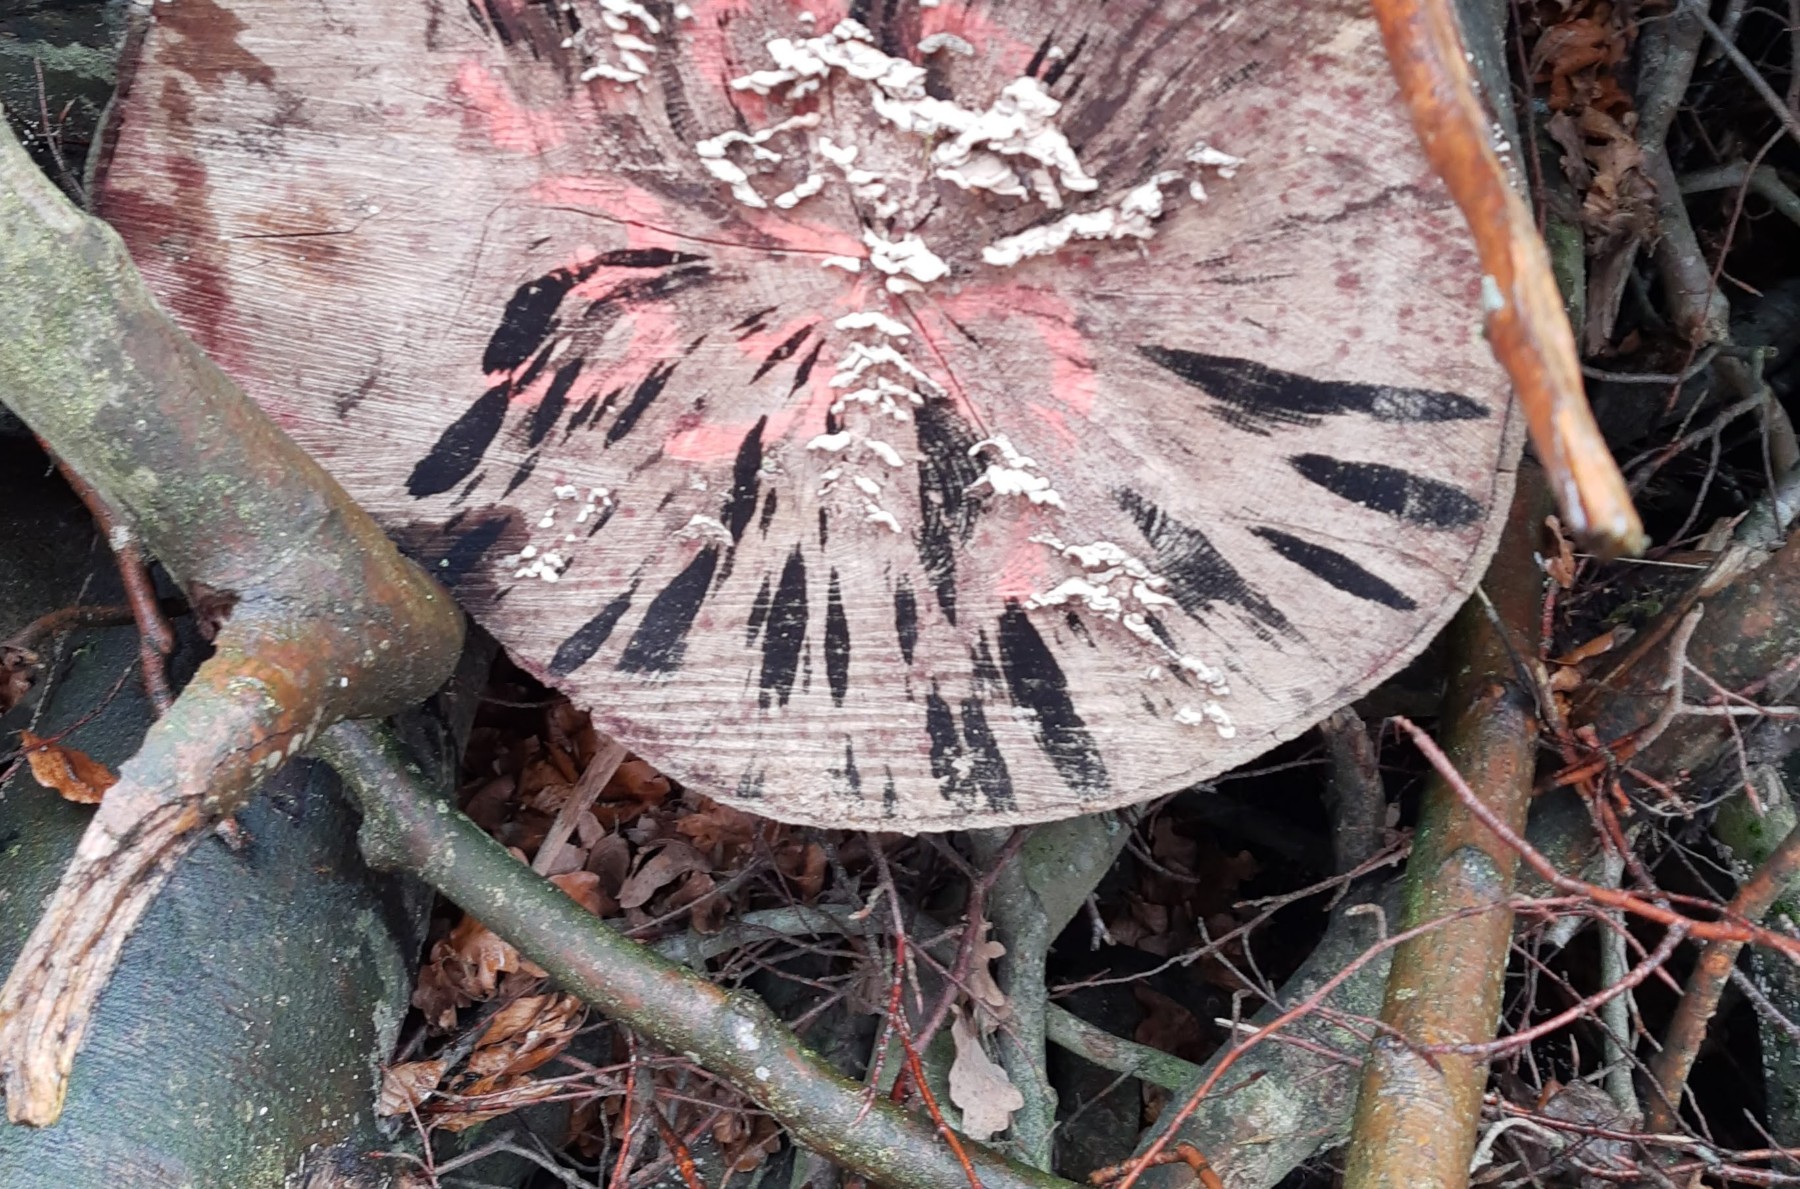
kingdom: Fungi
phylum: Ascomycota
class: Leotiomycetes
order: Helotiales
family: Helotiaceae
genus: Bispora
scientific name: Bispora pallescens
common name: måtte-snitskive
